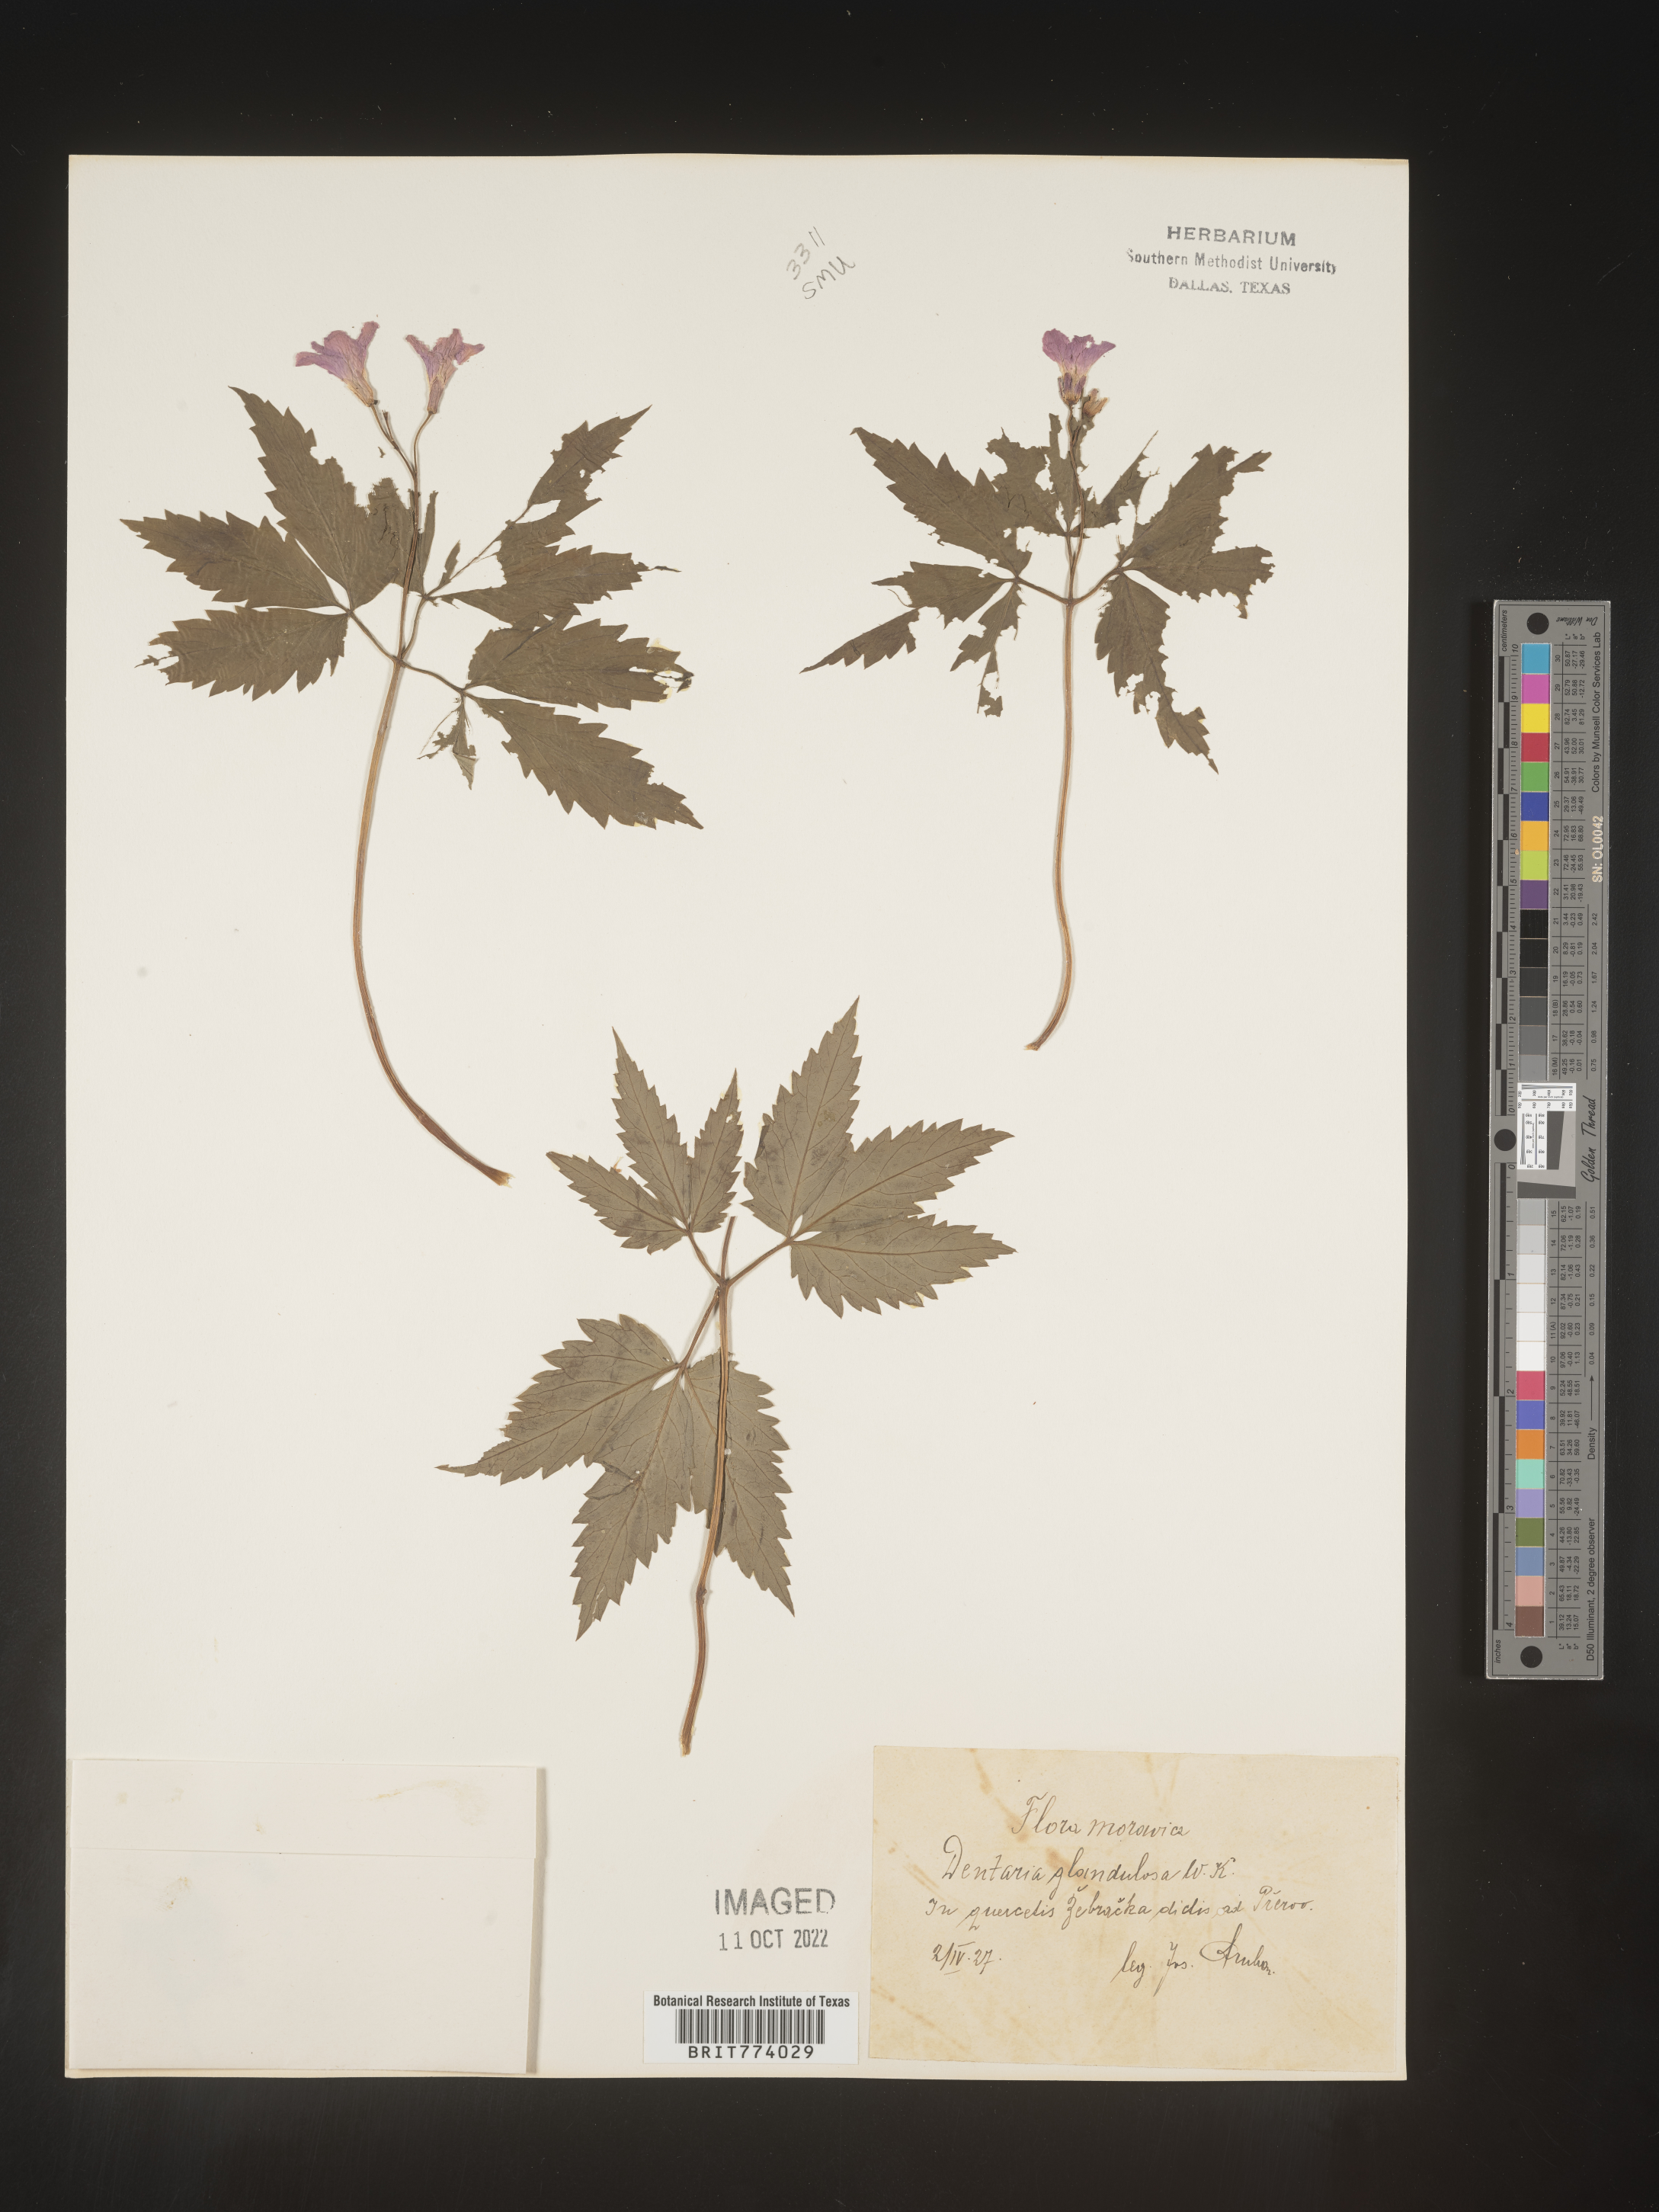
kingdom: Plantae
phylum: Tracheophyta
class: Magnoliopsida
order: Brassicales
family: Brassicaceae
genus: Cardamine
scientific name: Cardamine
